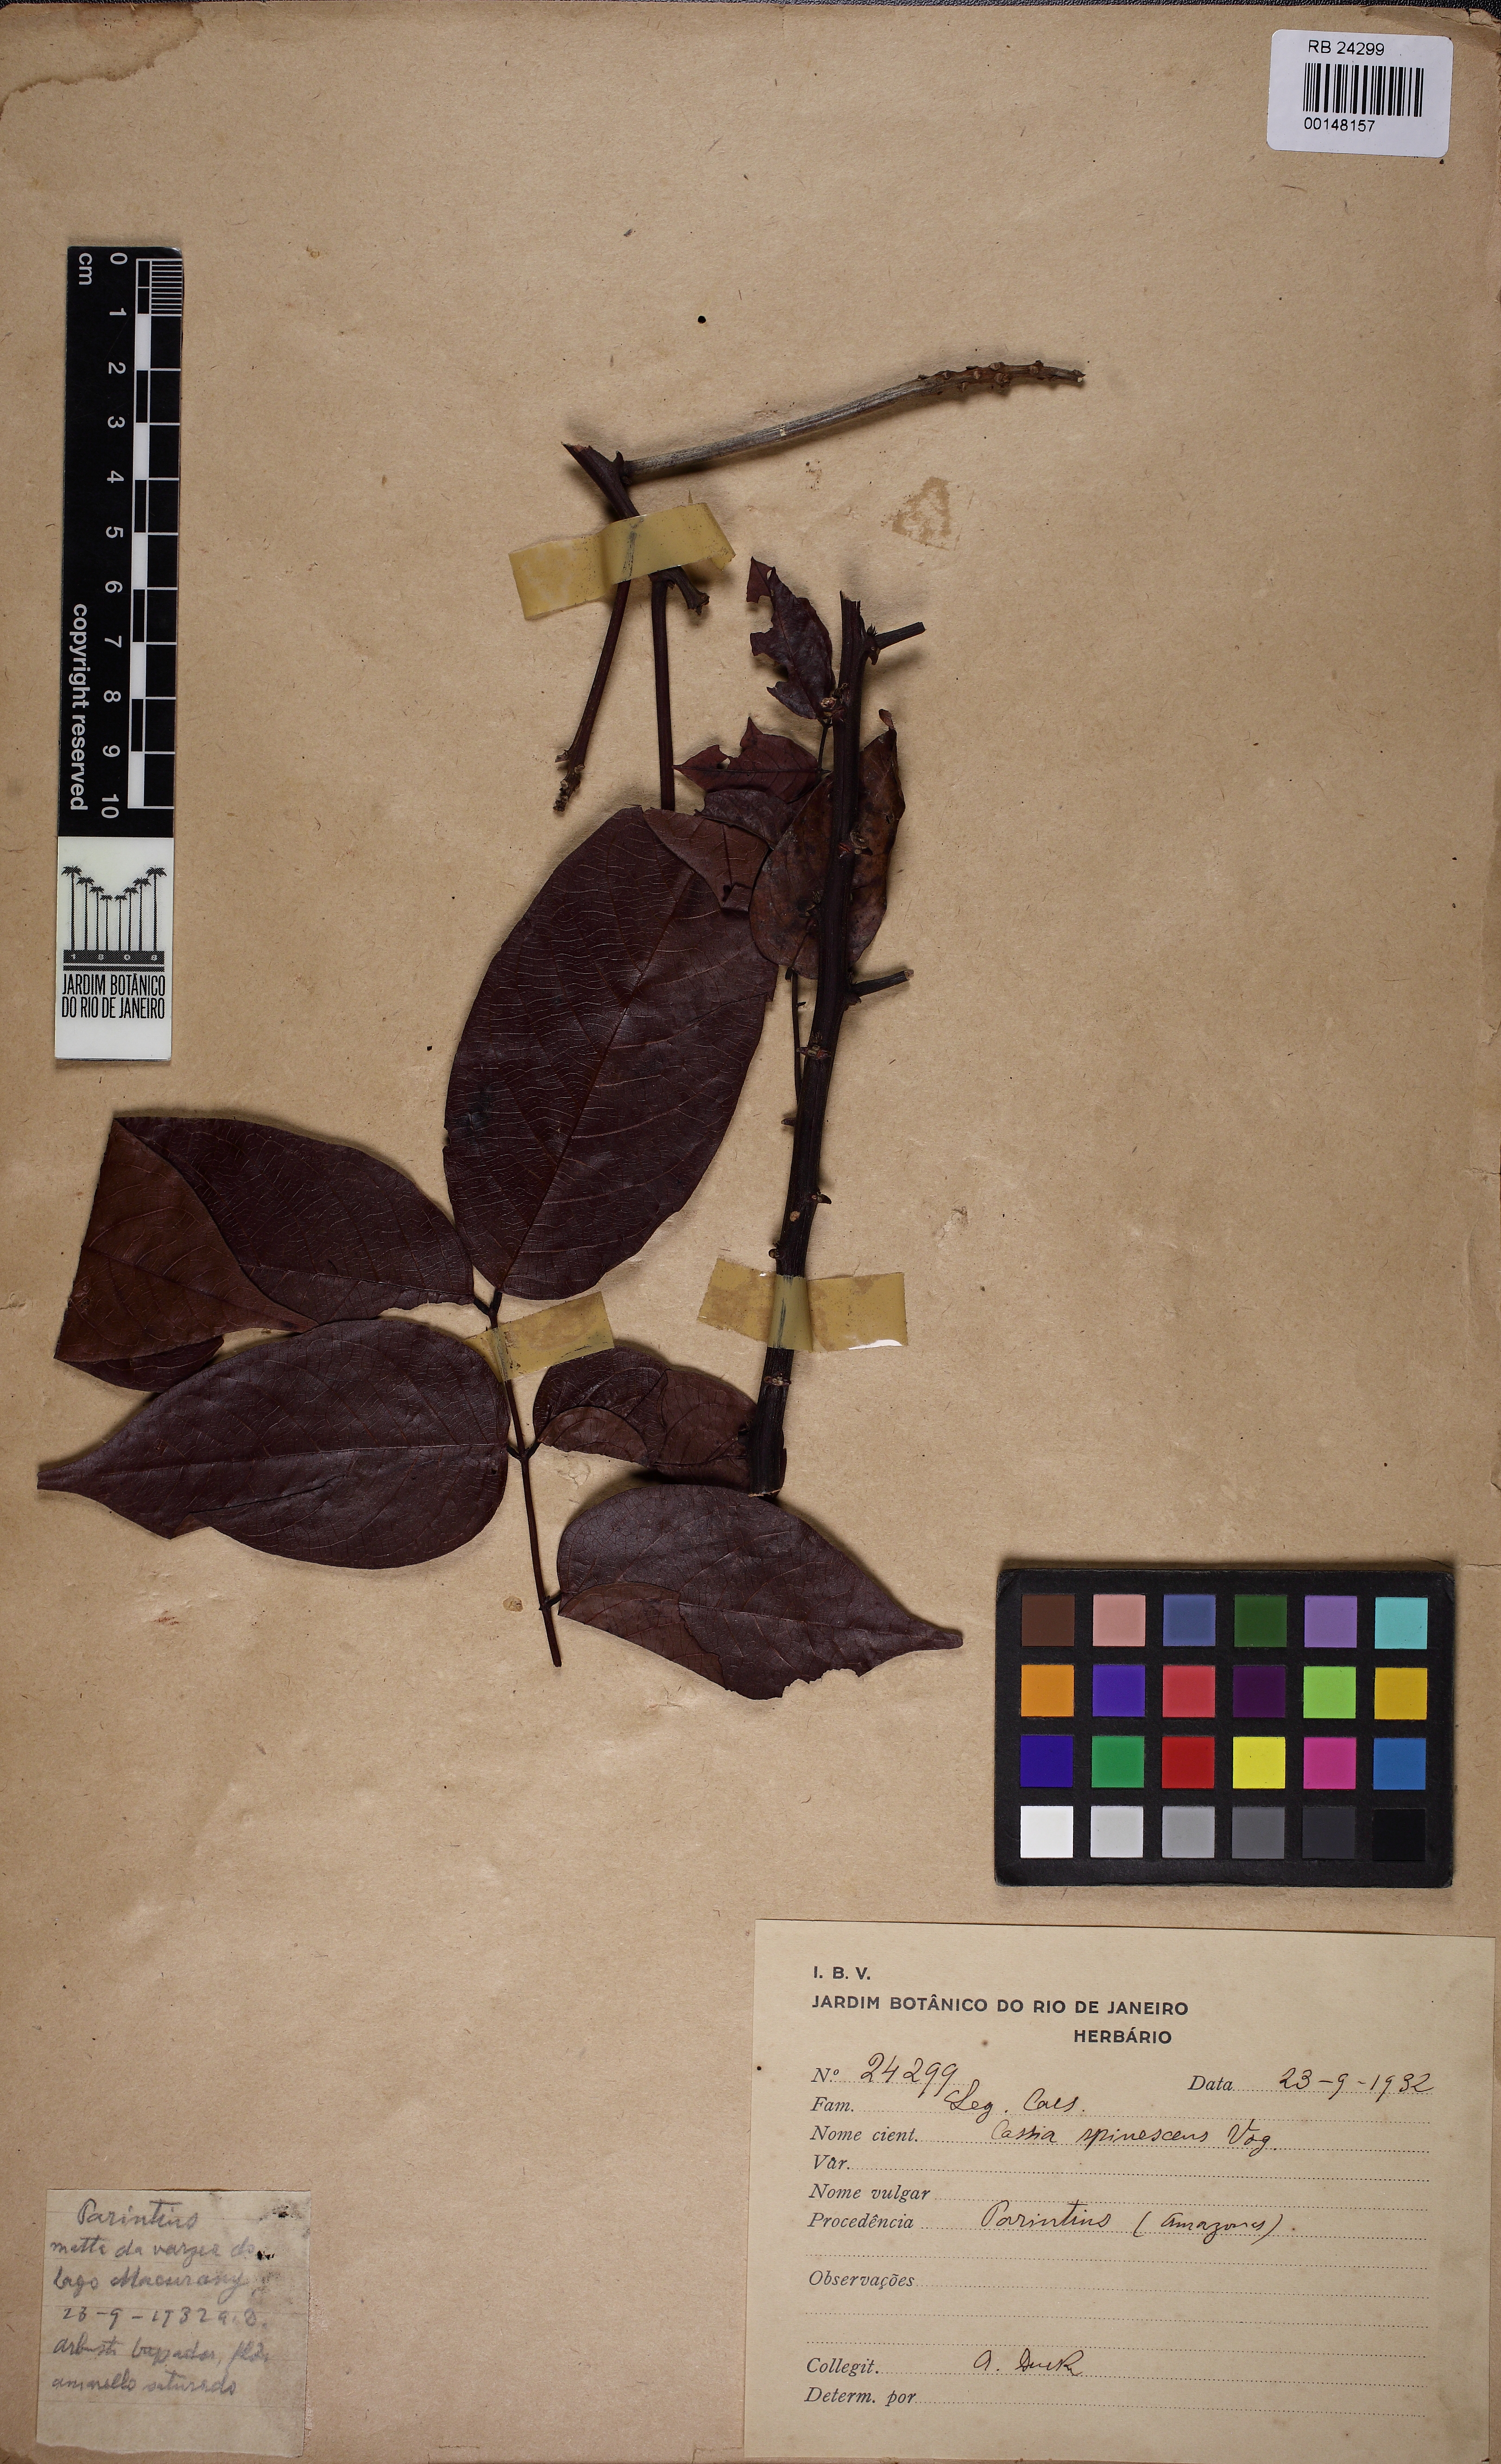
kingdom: Plantae
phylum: Tracheophyta
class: Magnoliopsida
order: Fabales
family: Fabaceae
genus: Senna
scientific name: Senna spinescens
